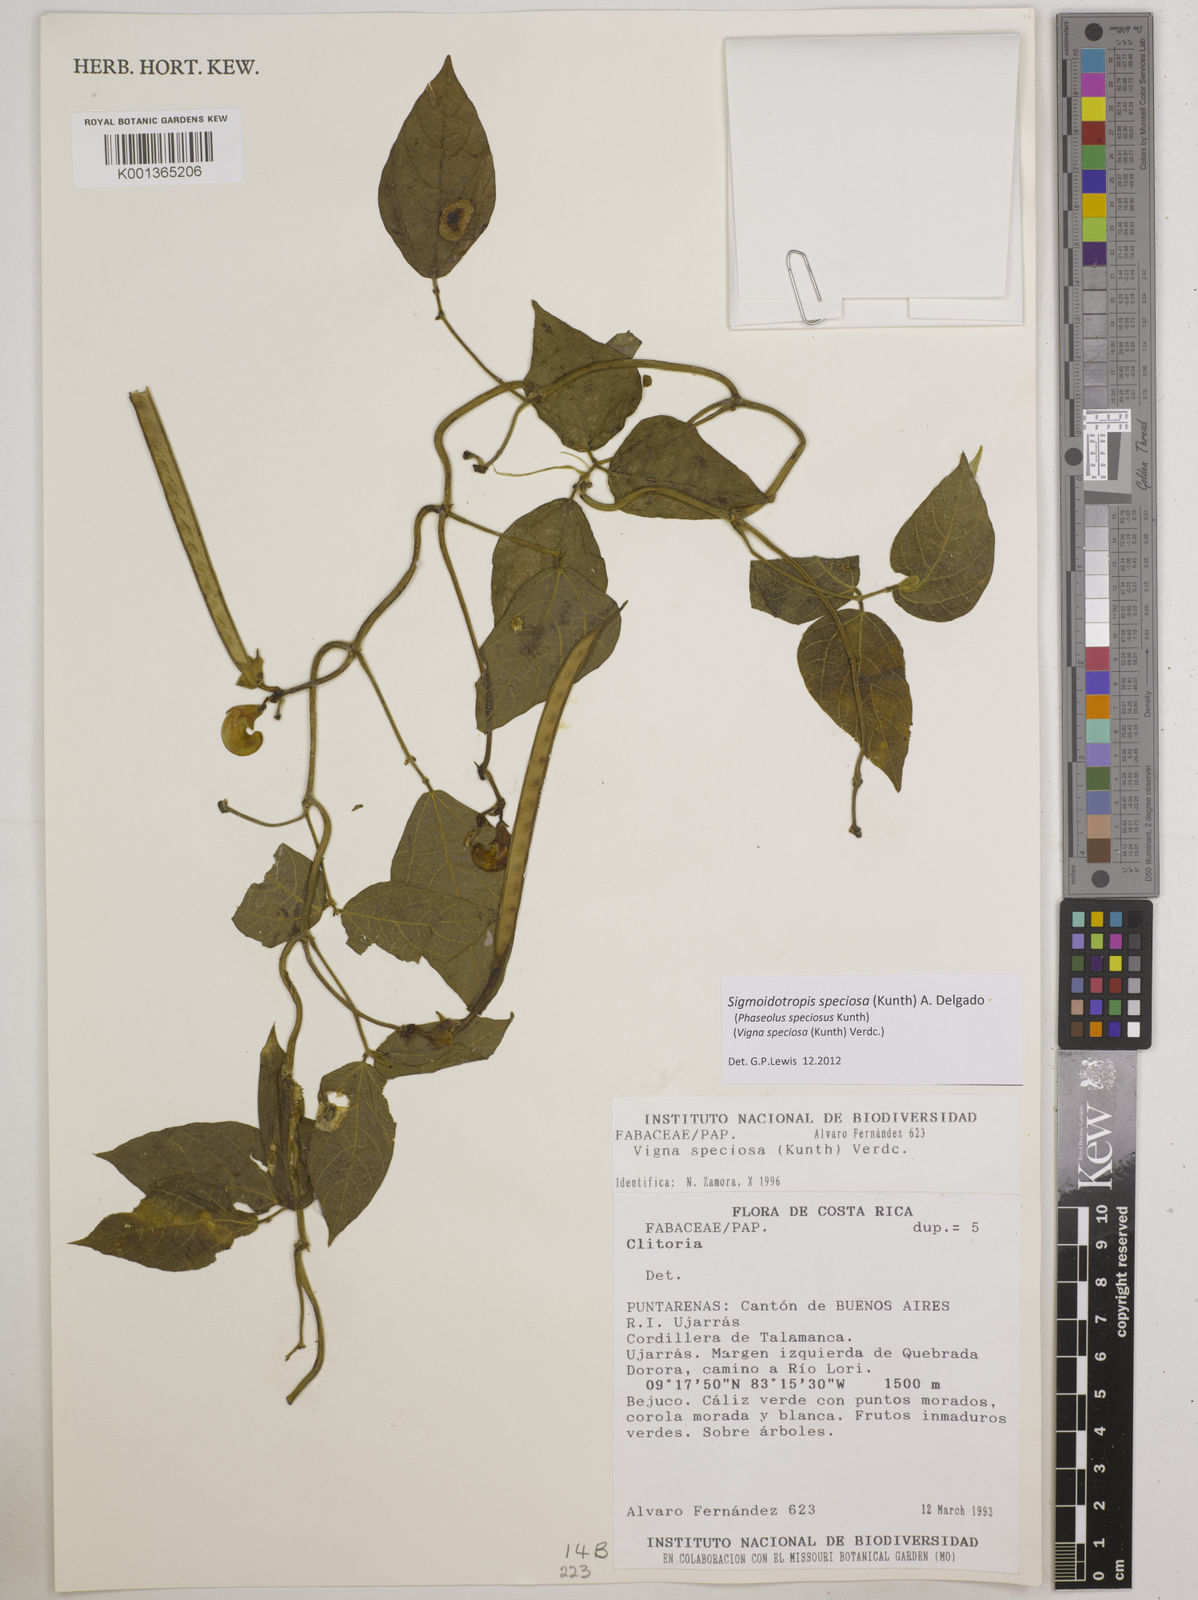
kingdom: Plantae
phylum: Tracheophyta
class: Magnoliopsida
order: Fabales
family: Fabaceae
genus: Sigmoidotropis
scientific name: Sigmoidotropis speciosa
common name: Snail flower
